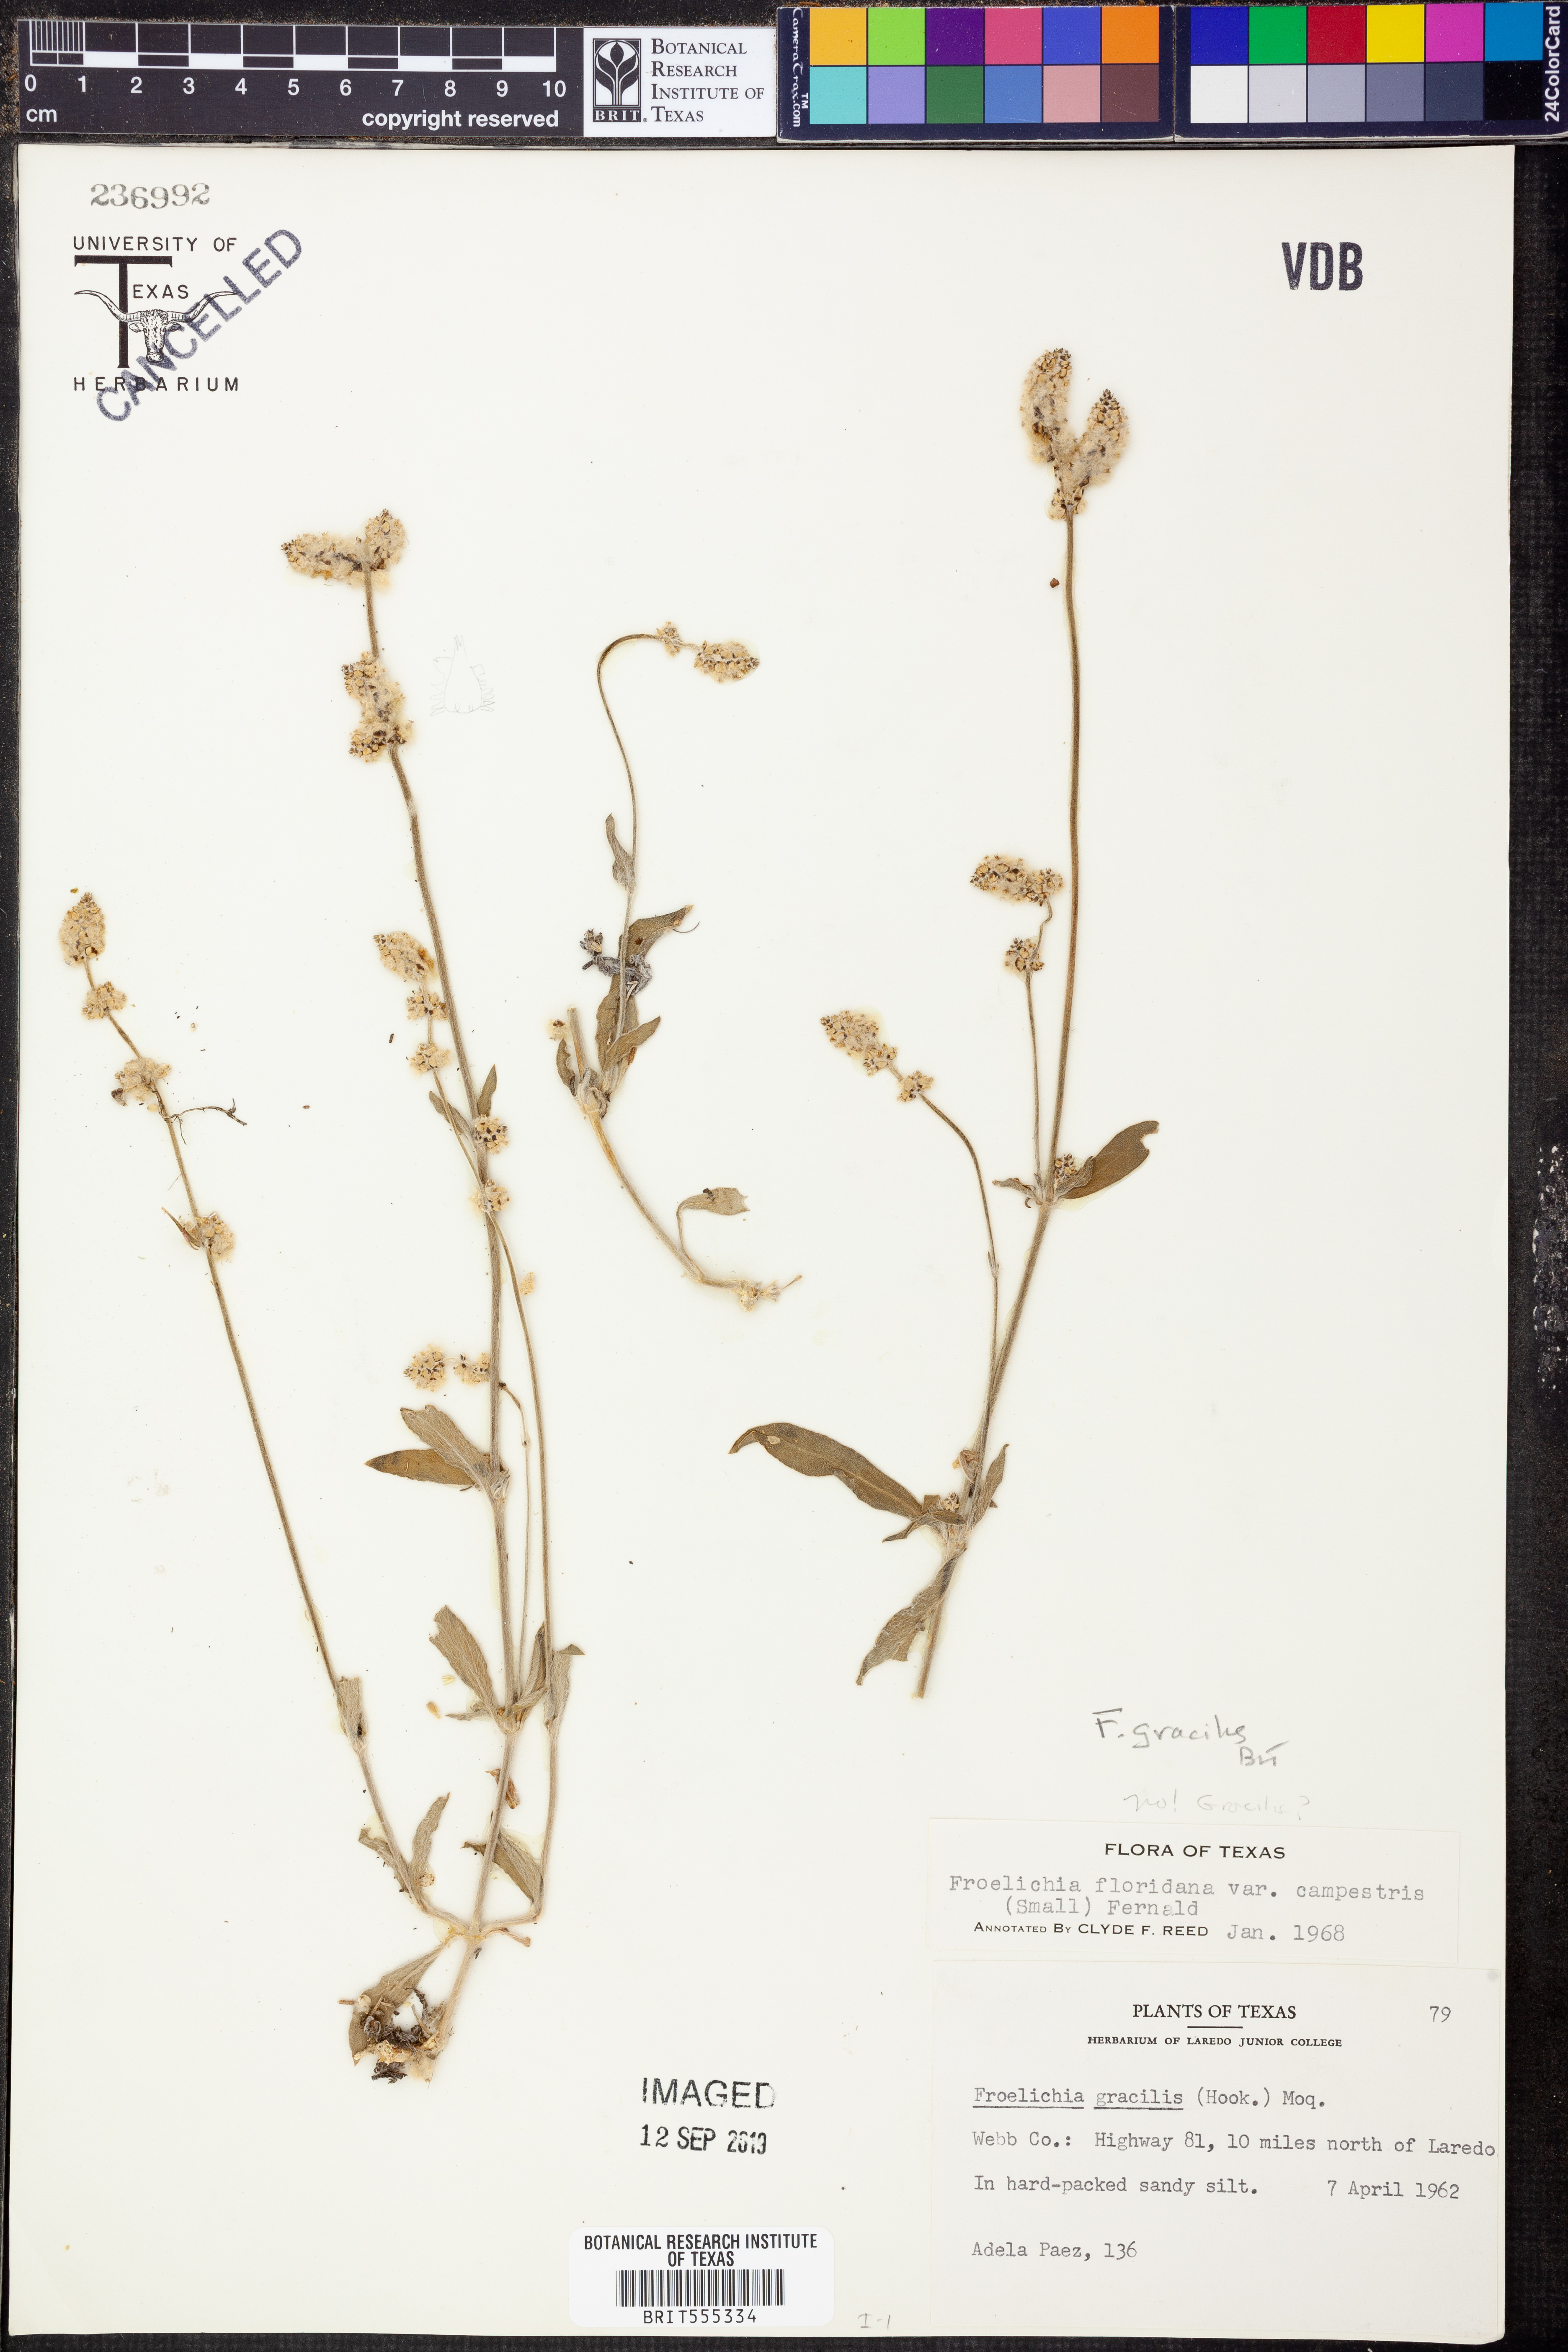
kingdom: Plantae
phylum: Tracheophyta
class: Magnoliopsida
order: Caryophyllales
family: Amaranthaceae
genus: Froelichia
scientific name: Froelichia gracilis
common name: Slender cottonweed
